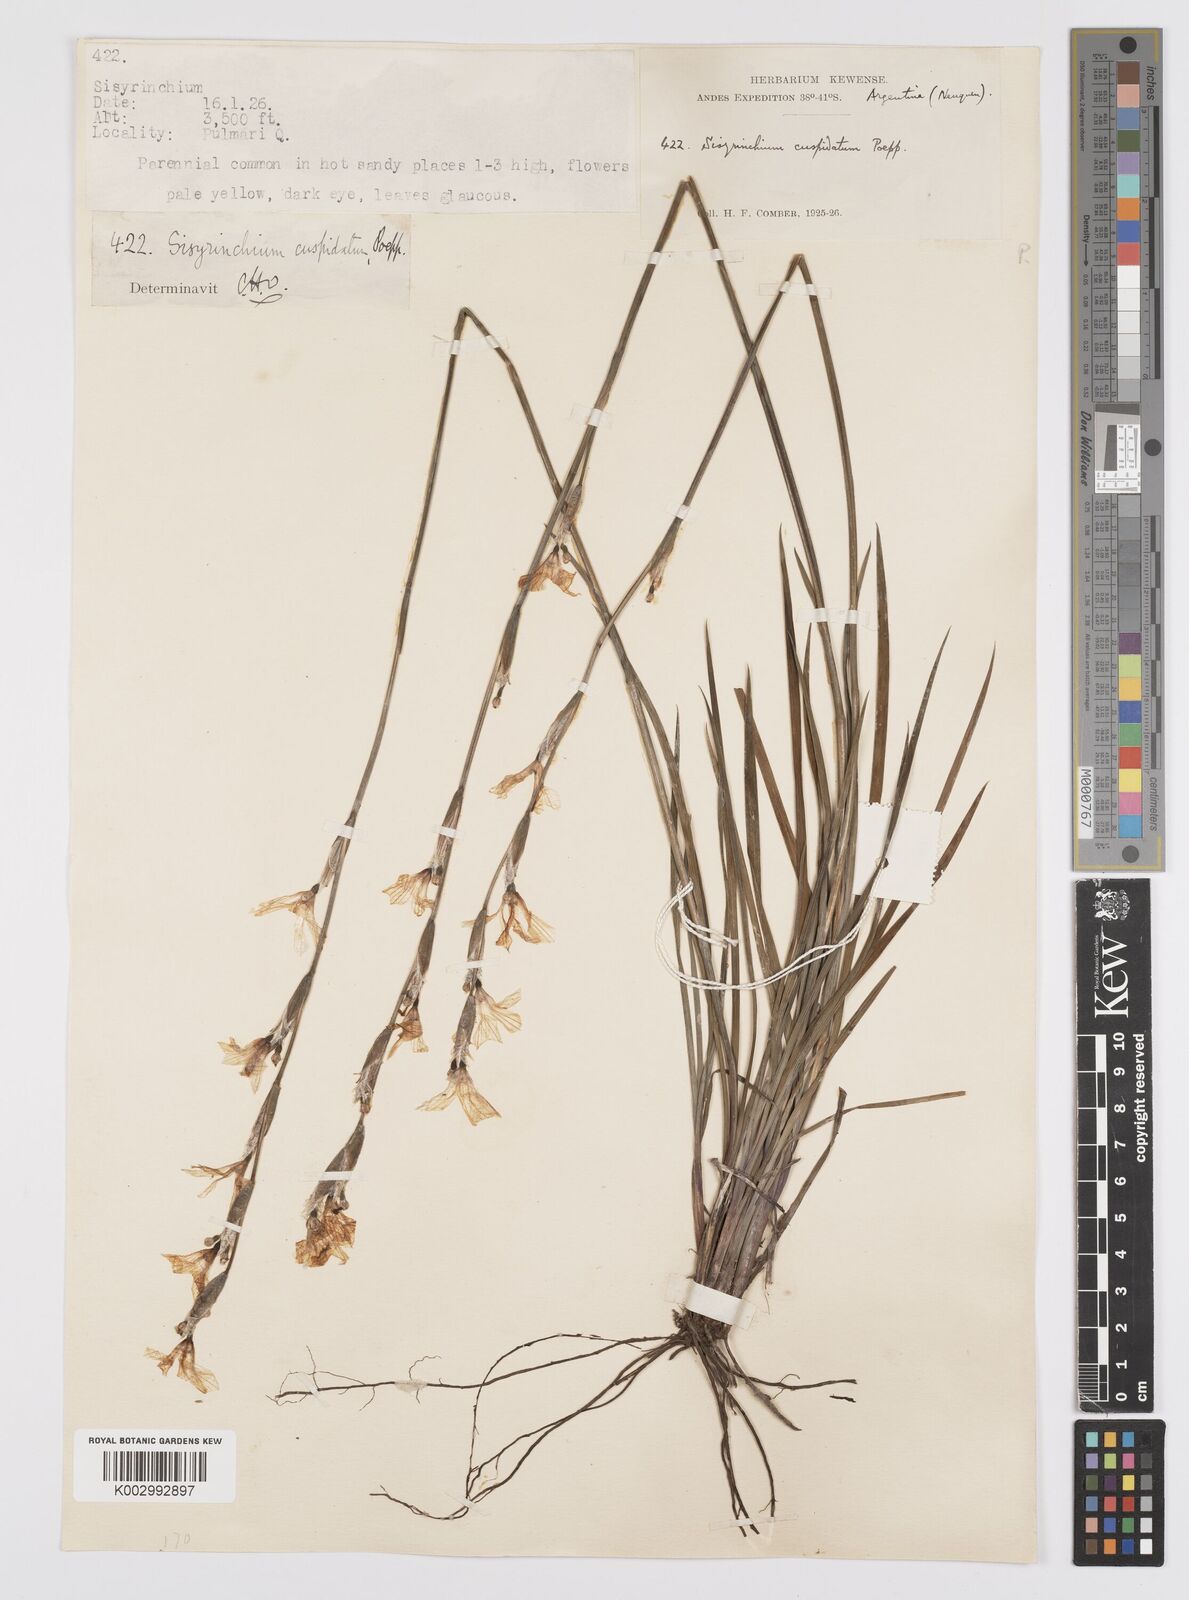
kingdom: Plantae
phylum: Tracheophyta
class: Liliopsida
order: Asparagales
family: Iridaceae
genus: Sisyrinchium
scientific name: Sisyrinchium cuspidatum
